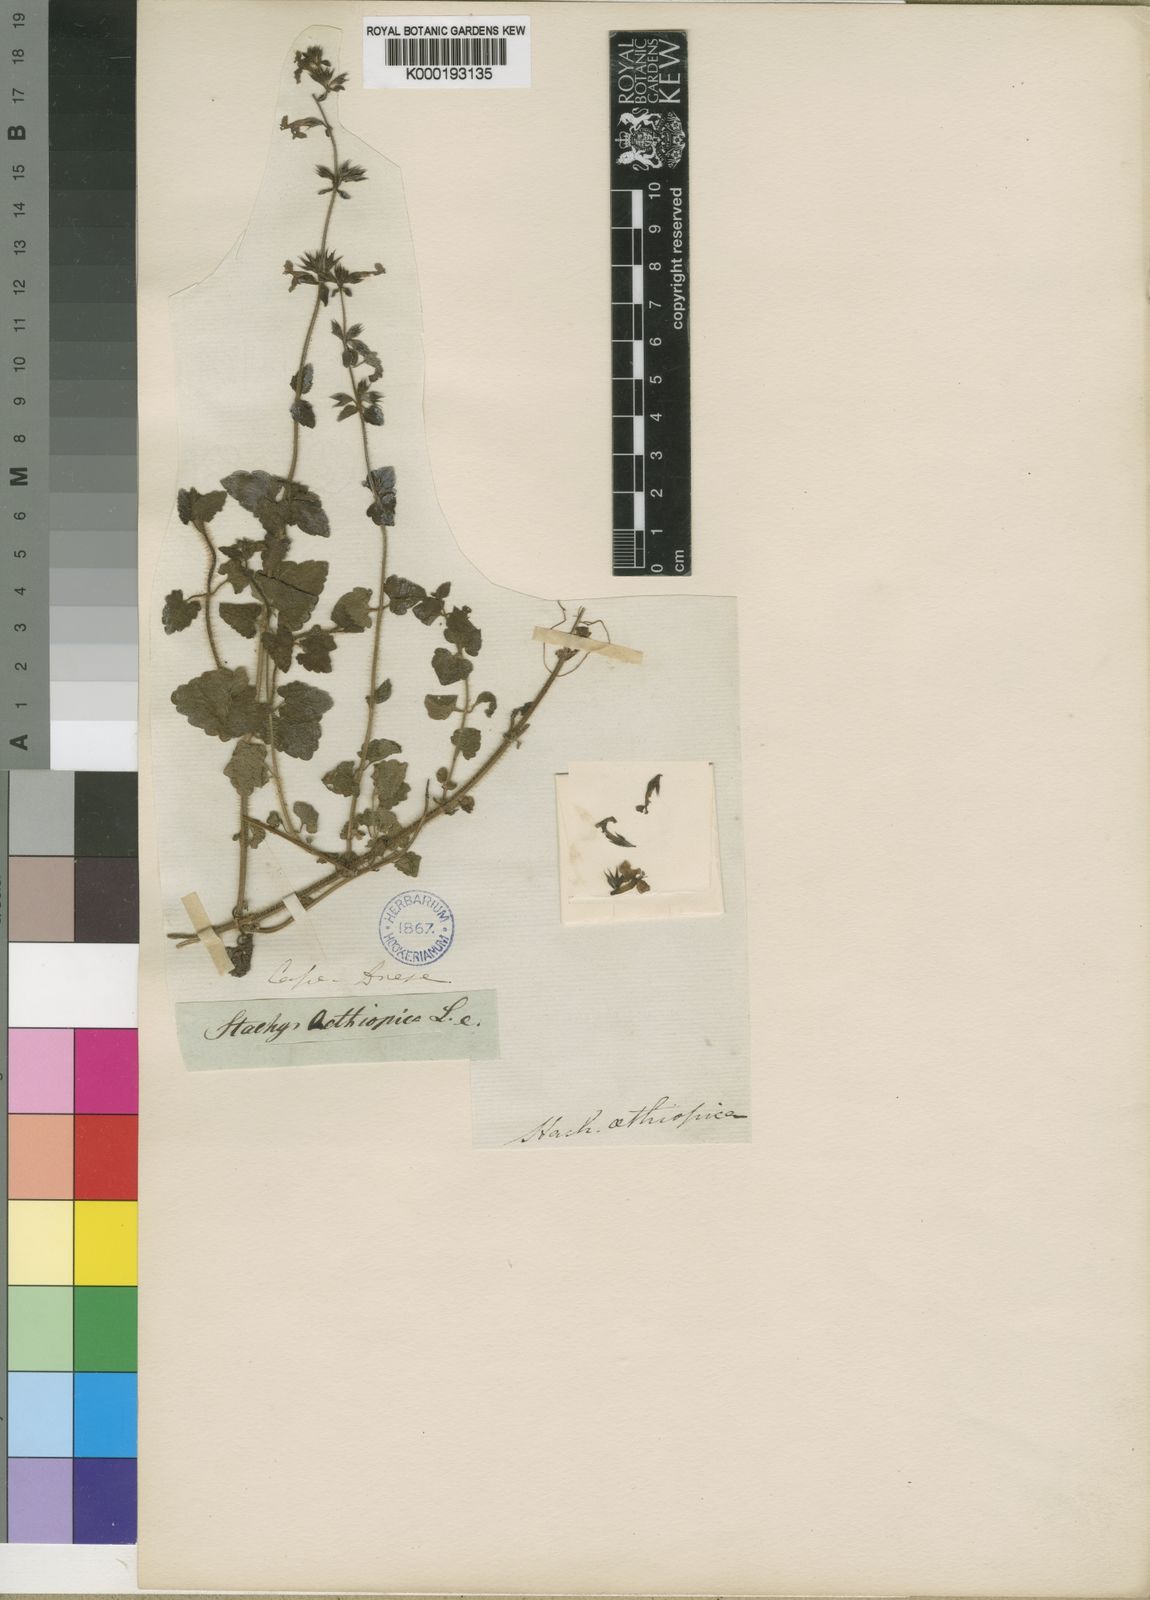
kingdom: Plantae
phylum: Tracheophyta
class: Magnoliopsida
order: Lamiales
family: Lamiaceae
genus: Stachys
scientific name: Stachys aethiopica
